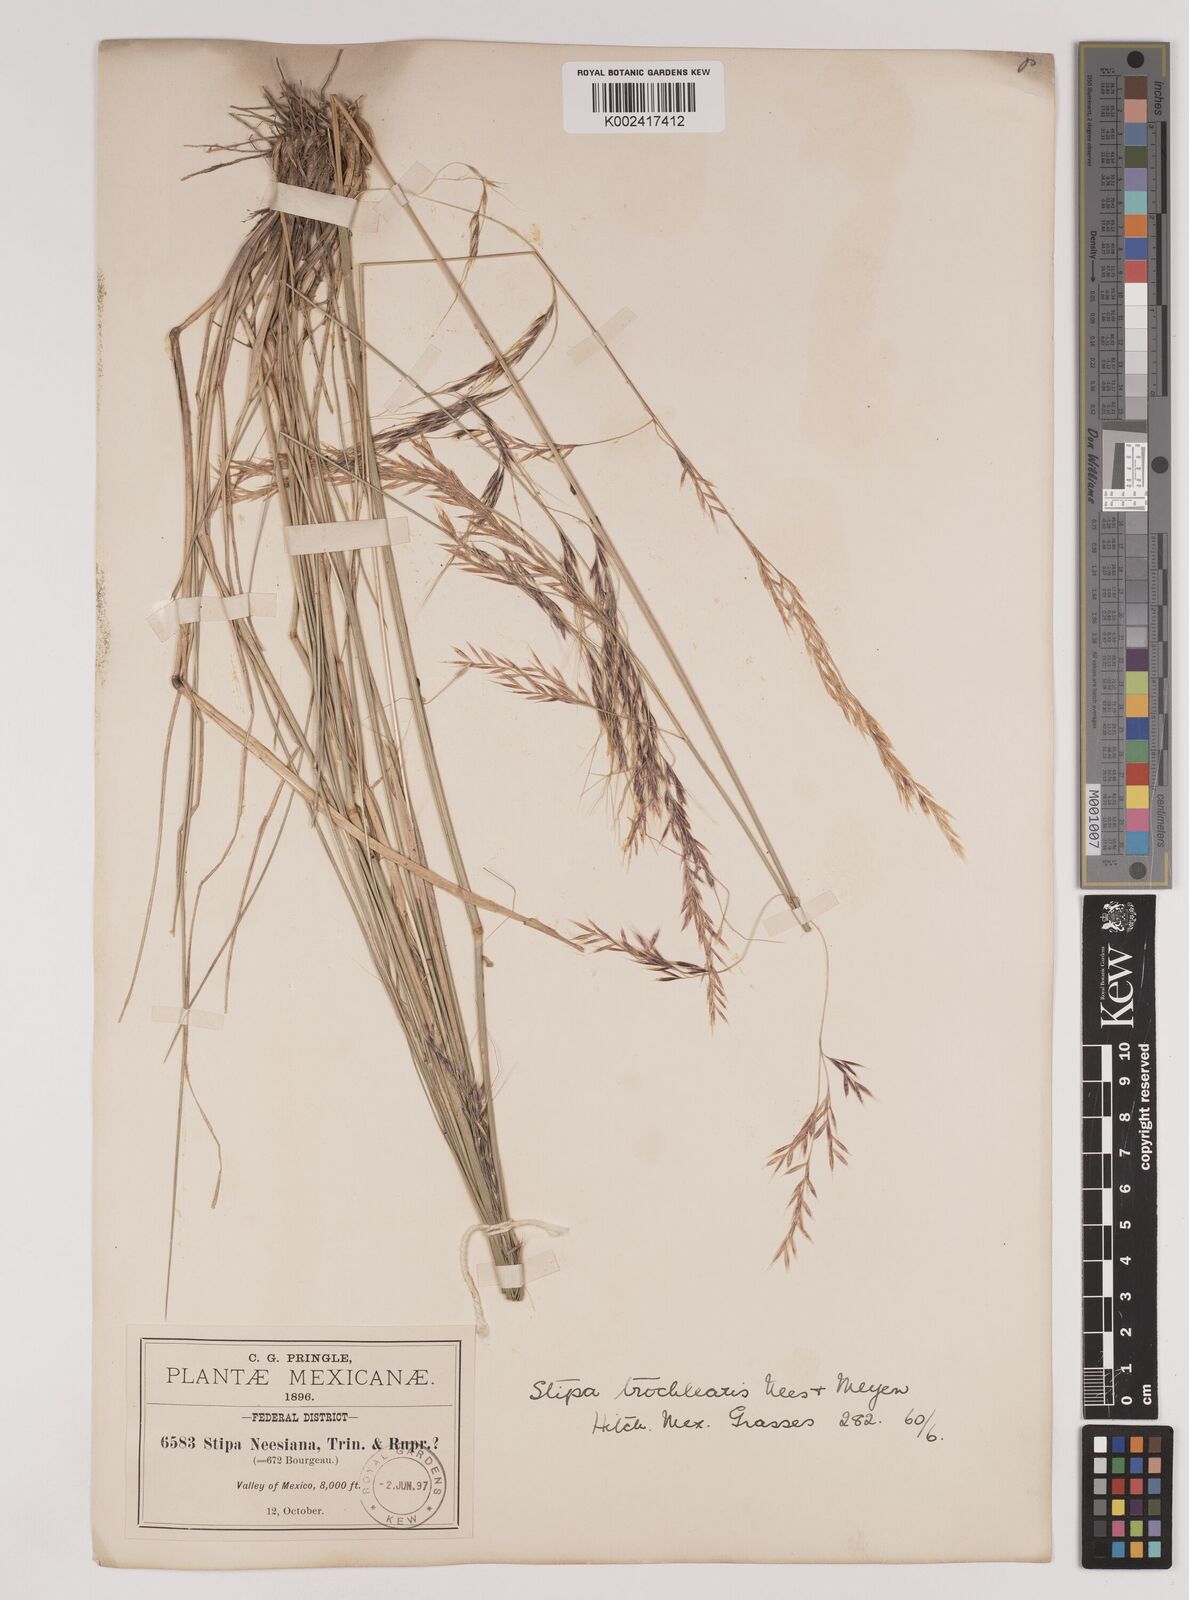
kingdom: Plantae
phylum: Tracheophyta
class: Liliopsida
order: Poales
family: Poaceae
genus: Nassella
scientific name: Nassella mucronata
